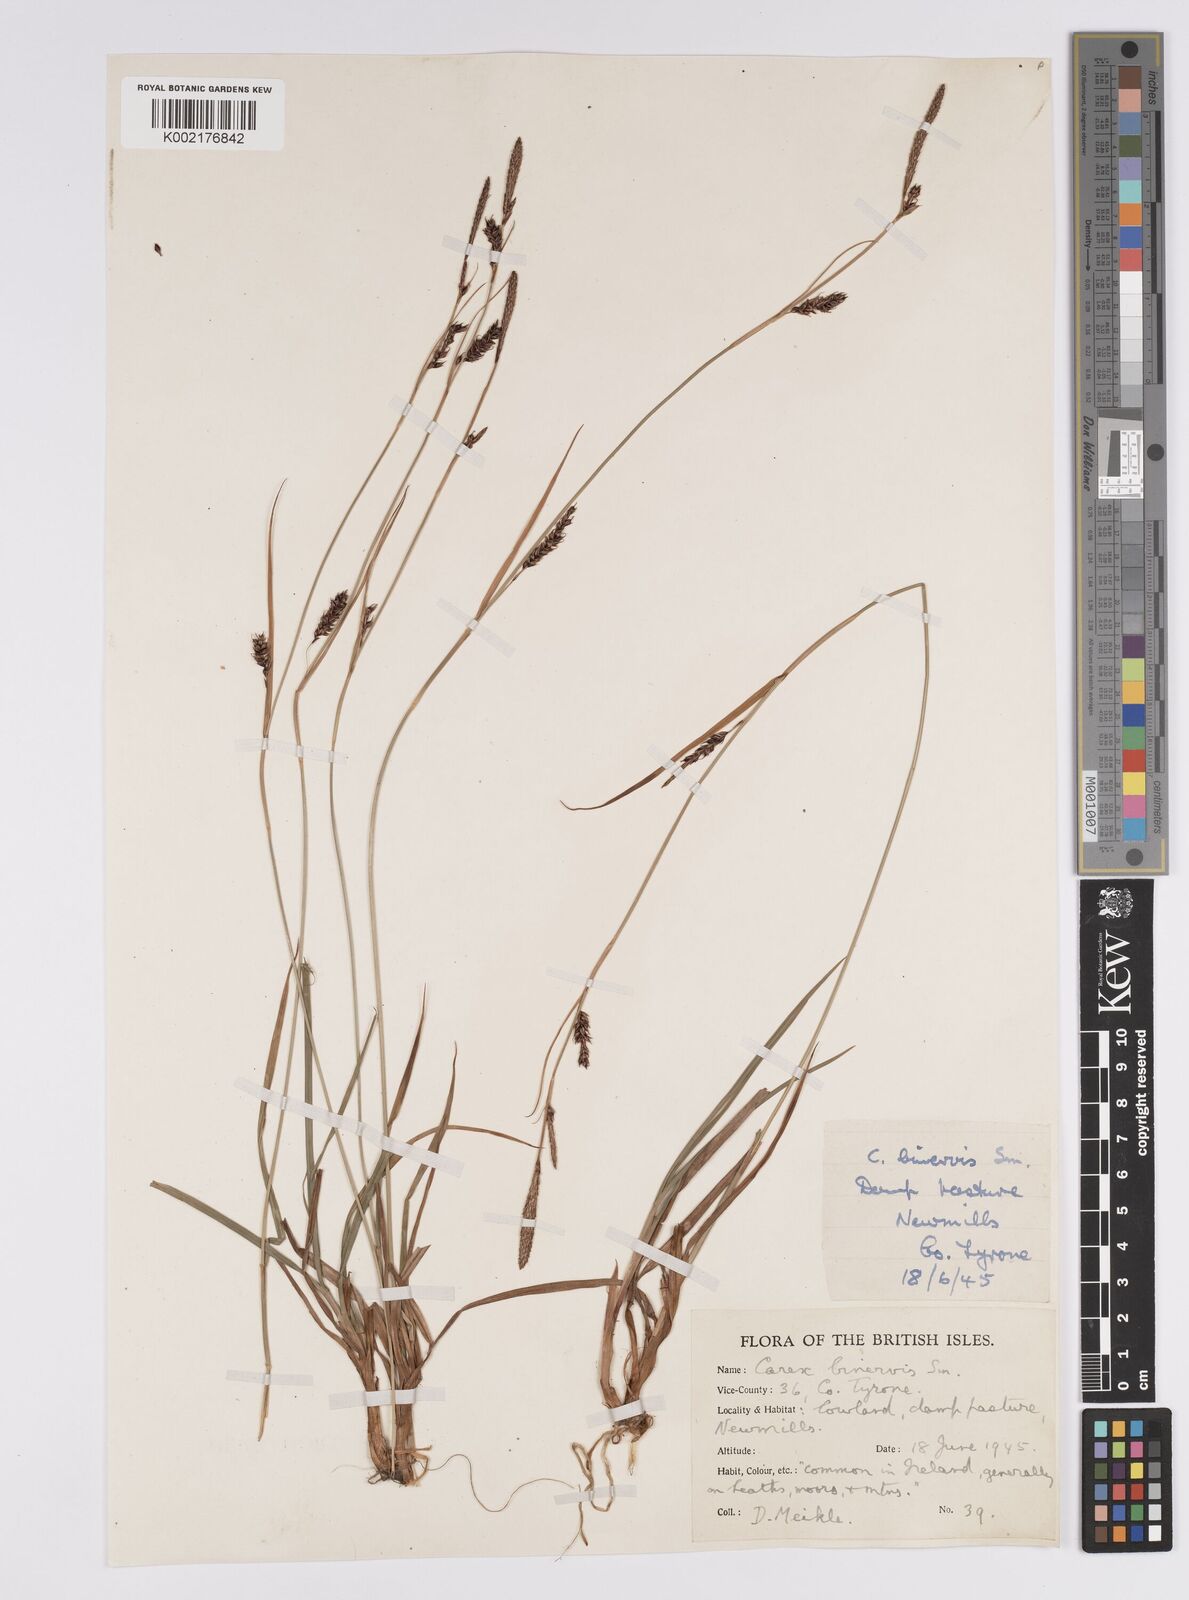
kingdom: Plantae
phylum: Tracheophyta
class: Liliopsida
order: Poales
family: Cyperaceae
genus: Carex
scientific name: Carex binervis
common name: Green-ribbed sedge
